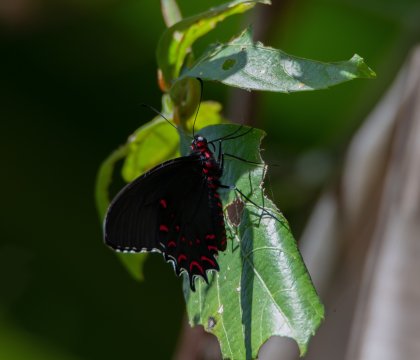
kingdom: Animalia
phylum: Arthropoda
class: Insecta
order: Lepidoptera
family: Papilionidae
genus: Parides
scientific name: Parides photinus
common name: Pink-spotted Cattleheart
